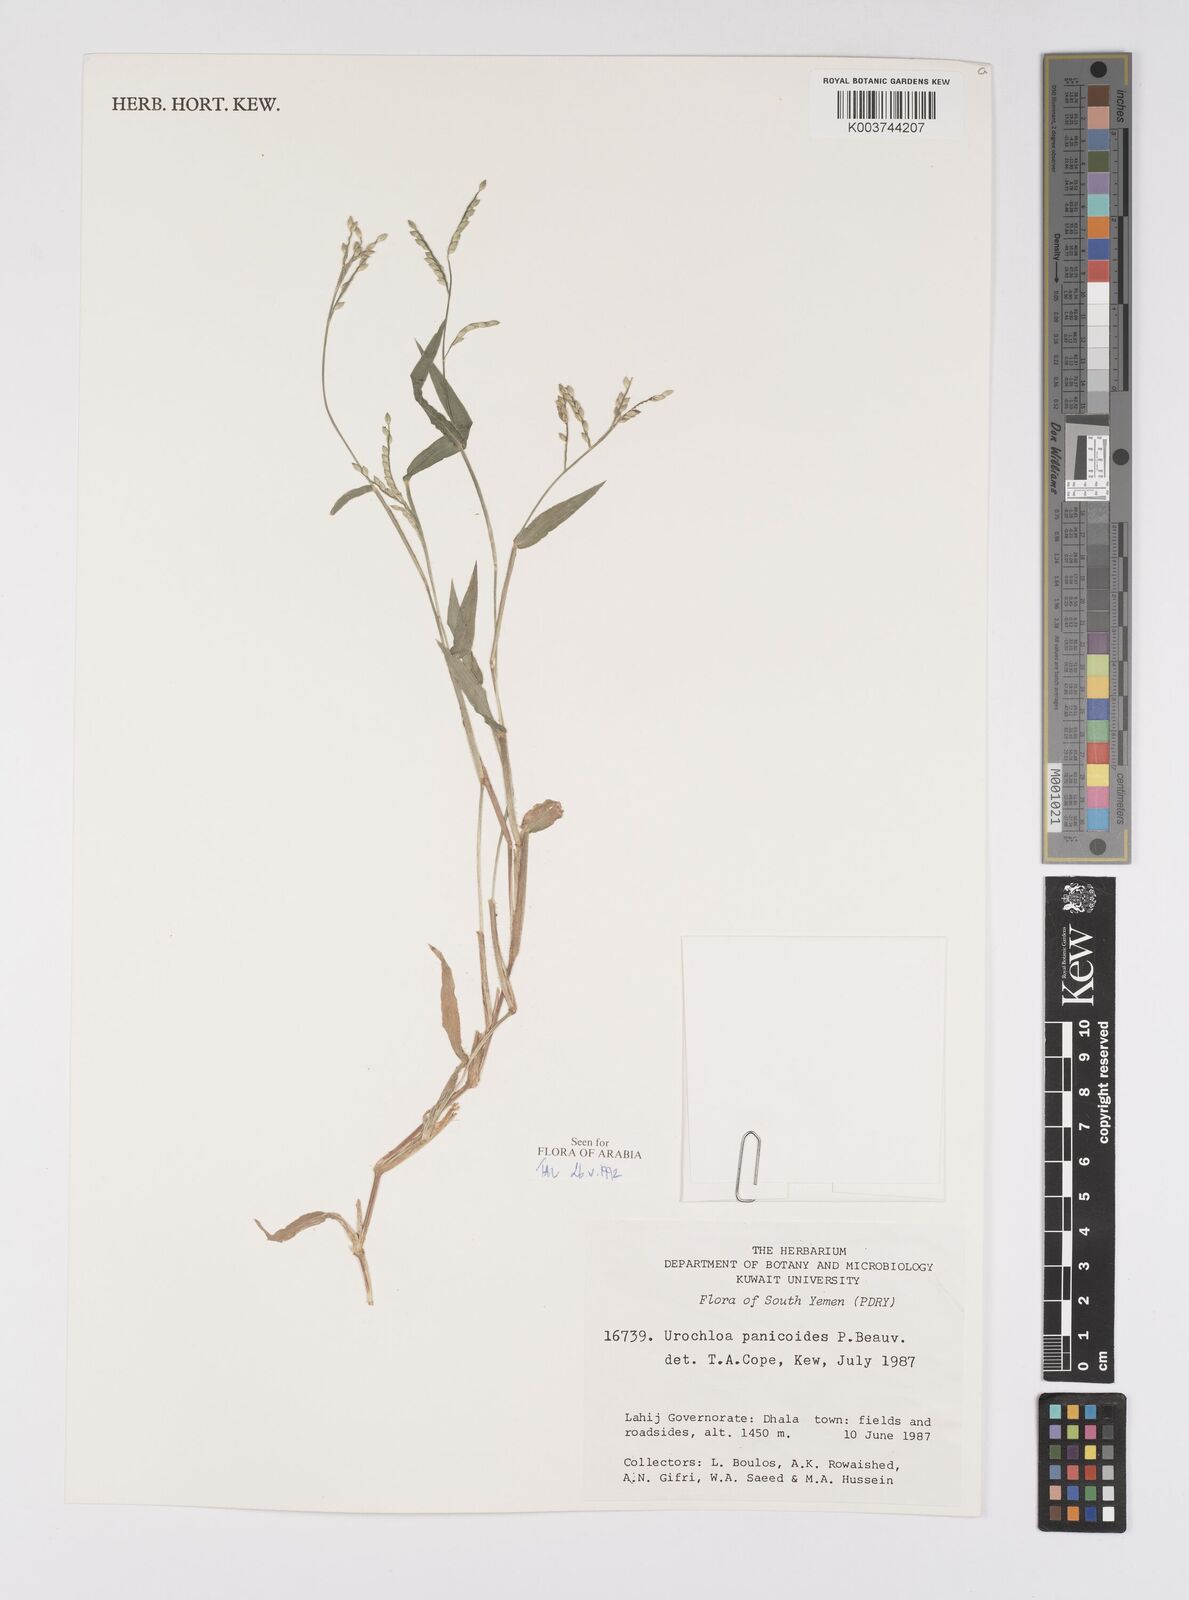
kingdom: Plantae
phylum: Tracheophyta
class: Liliopsida
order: Poales
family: Poaceae
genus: Urochloa
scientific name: Urochloa panicoides
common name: Sharp-flowered signal-grass
